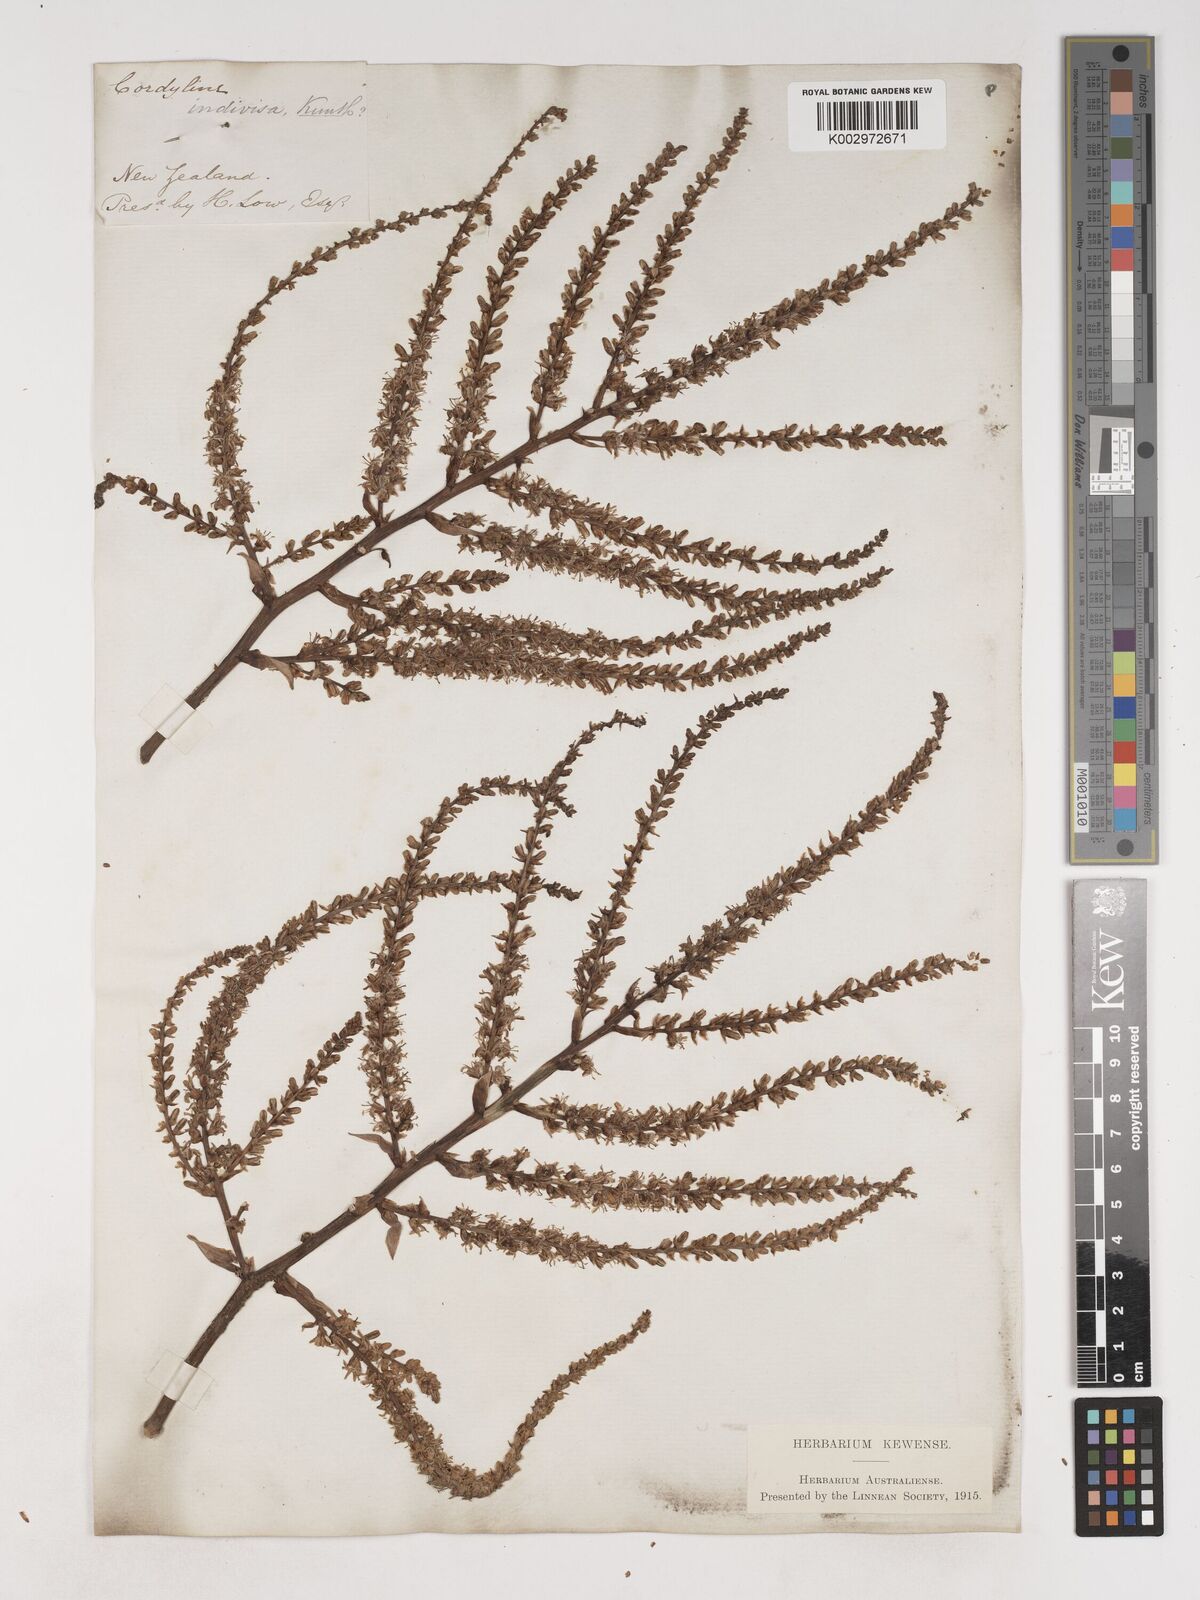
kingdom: Plantae
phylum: Tracheophyta
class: Liliopsida
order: Asparagales
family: Asparagaceae
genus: Cordyline
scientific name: Cordyline australis
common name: Cabbage-palm
